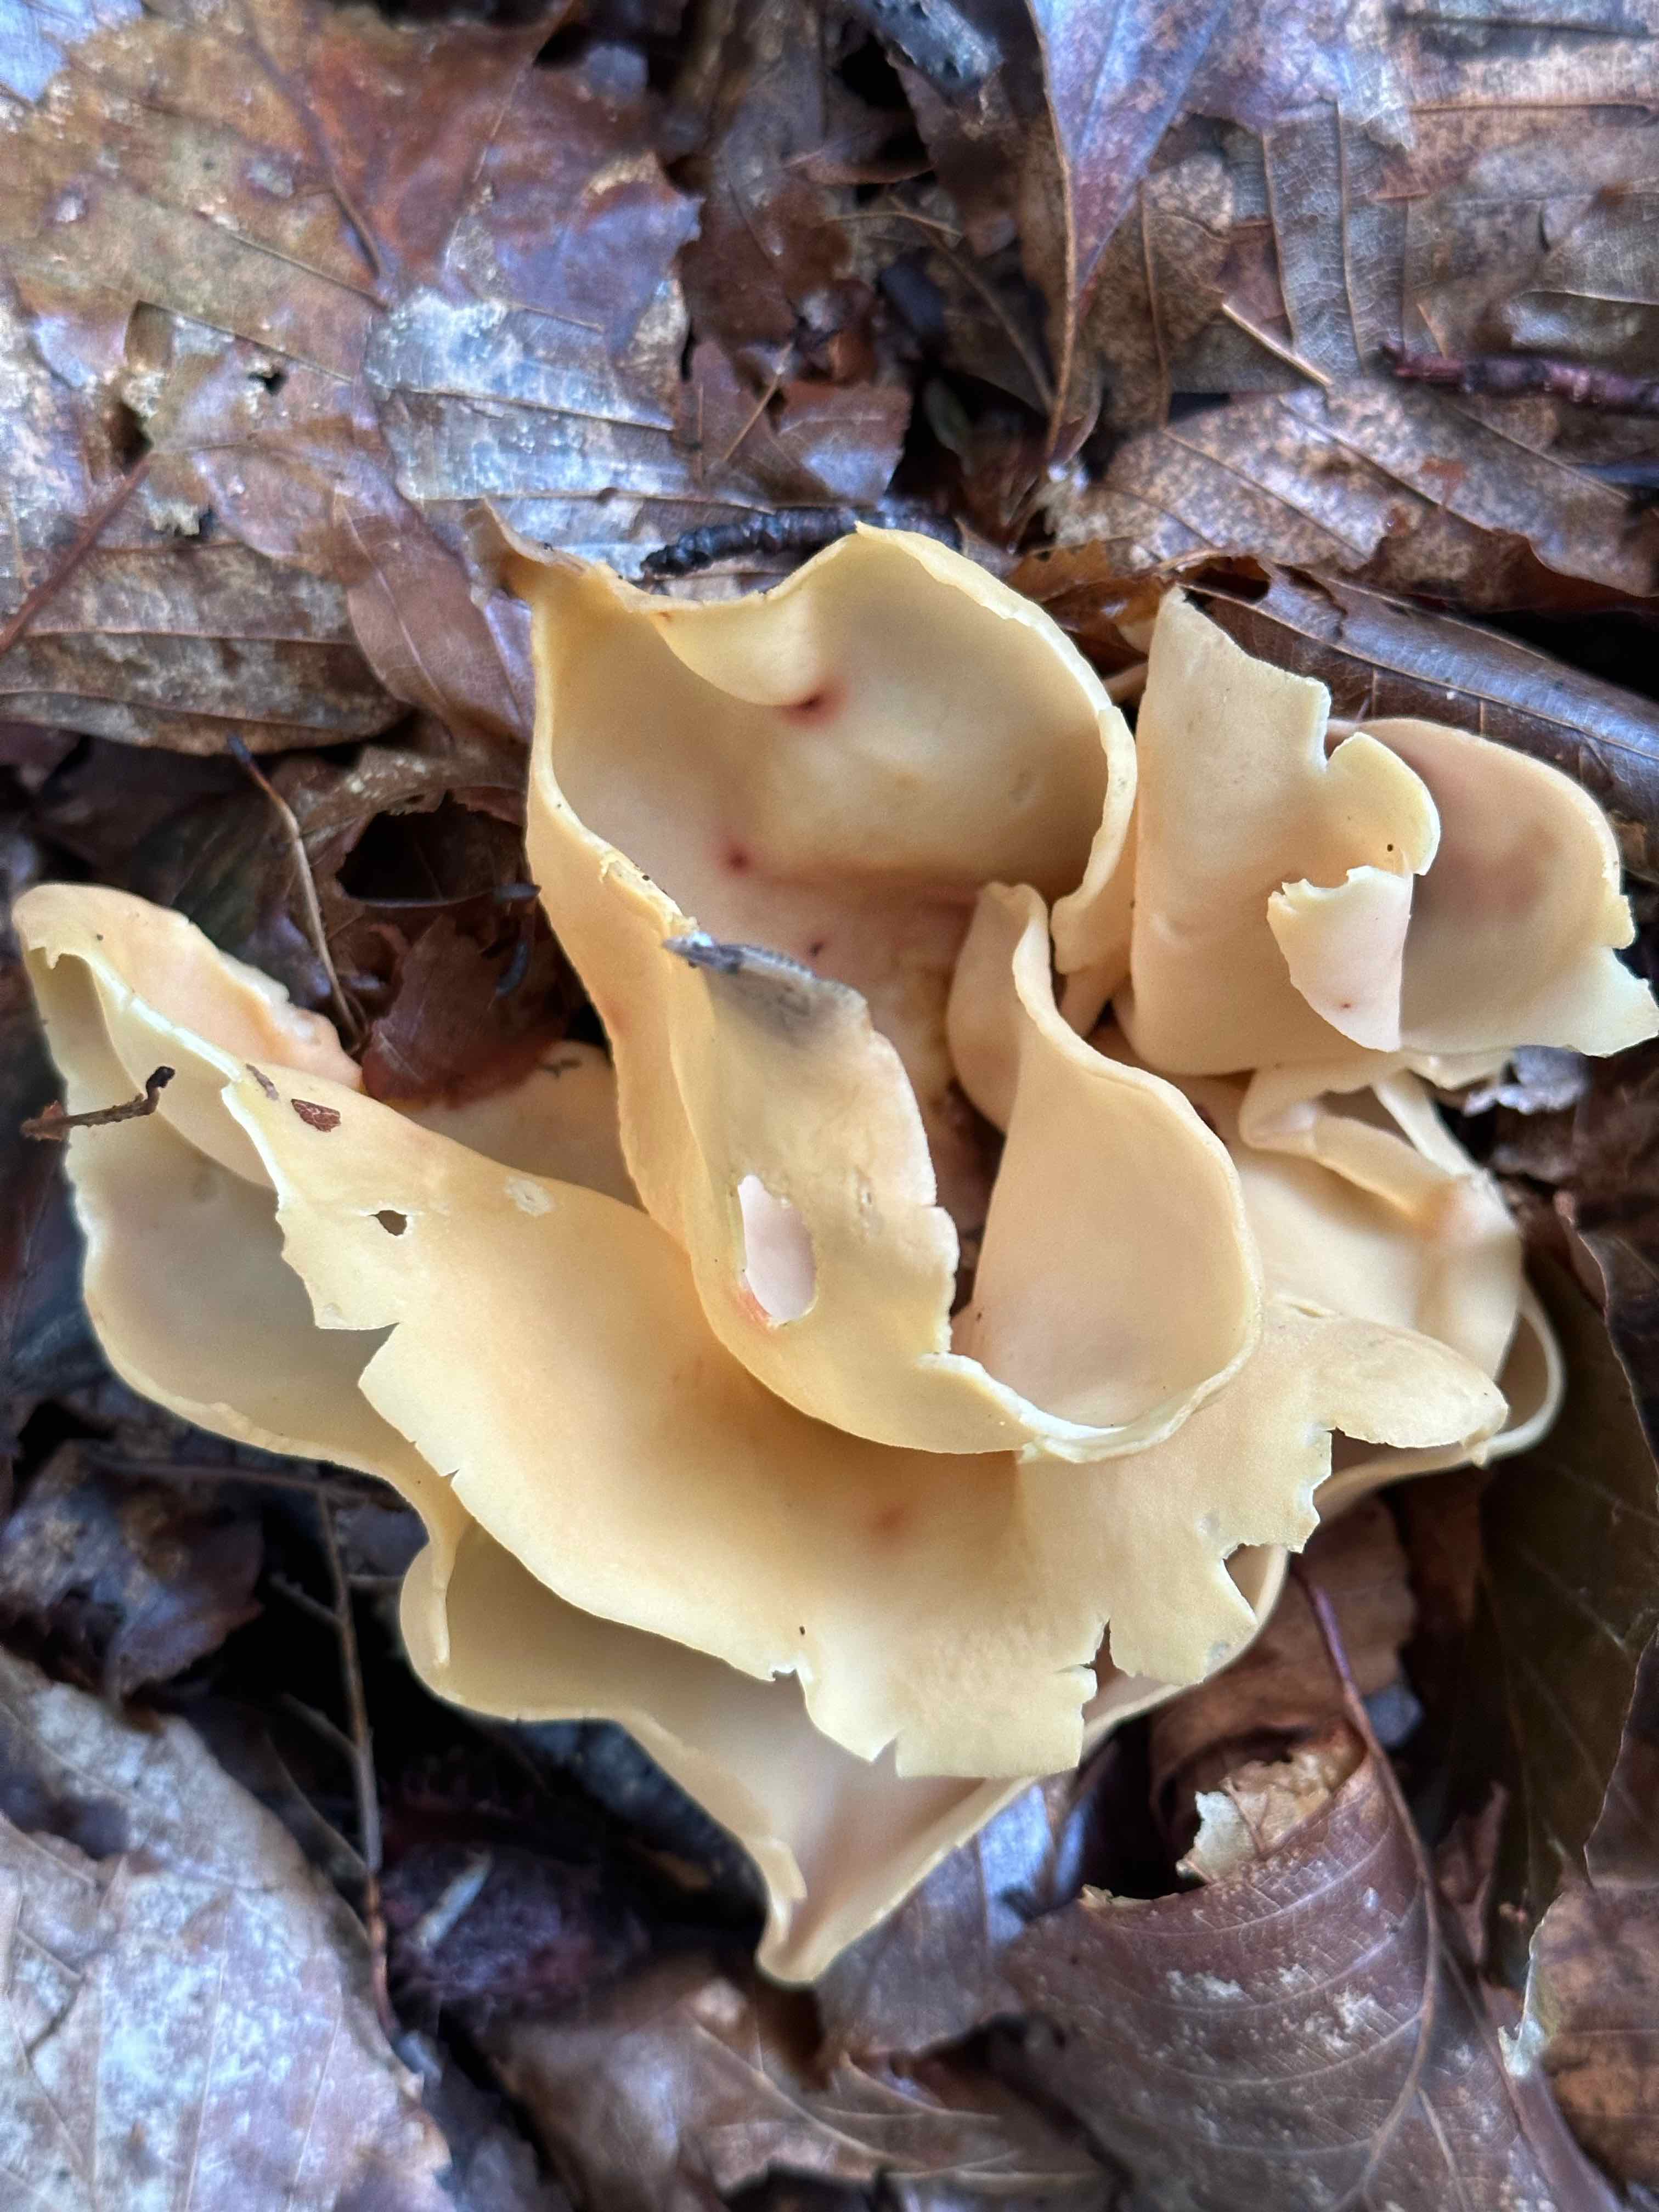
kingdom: Fungi
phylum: Ascomycota
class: Pezizomycetes
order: Pezizales
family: Otideaceae
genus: Otidea
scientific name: Otidea
